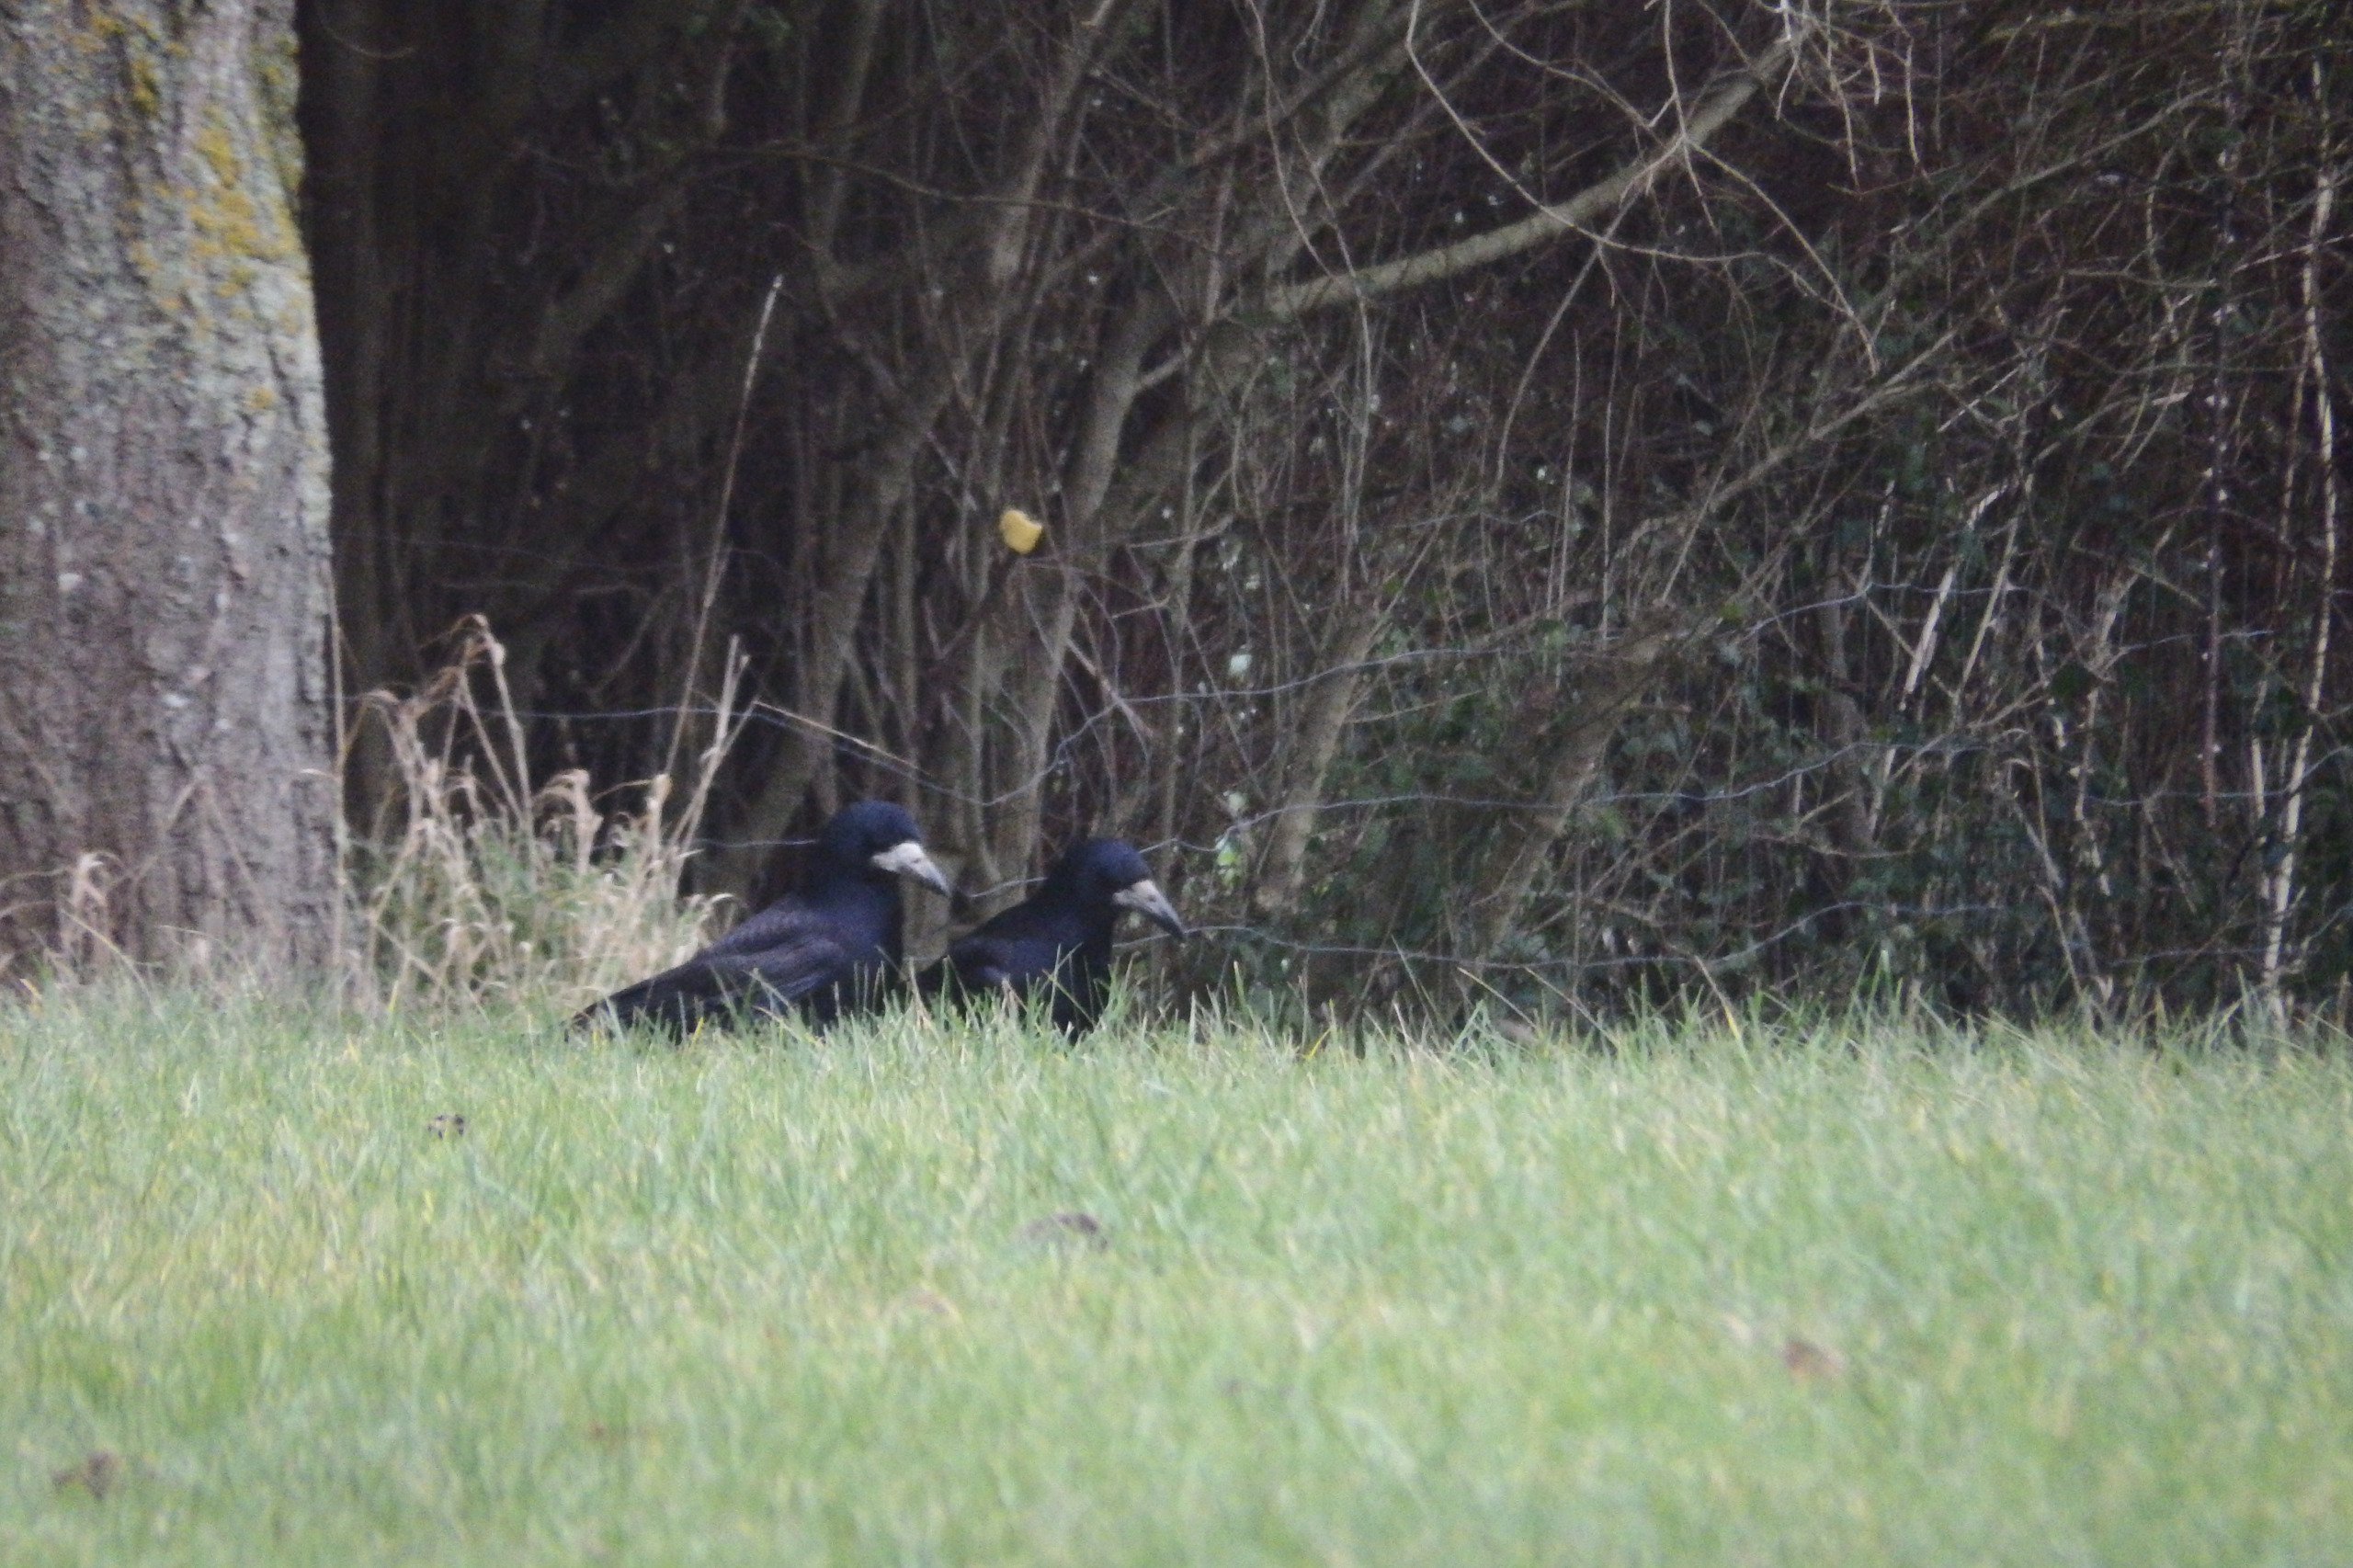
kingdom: Animalia
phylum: Chordata
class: Aves
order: Passeriformes
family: Corvidae
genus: Corvus
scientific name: Corvus frugilegus
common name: Råge
